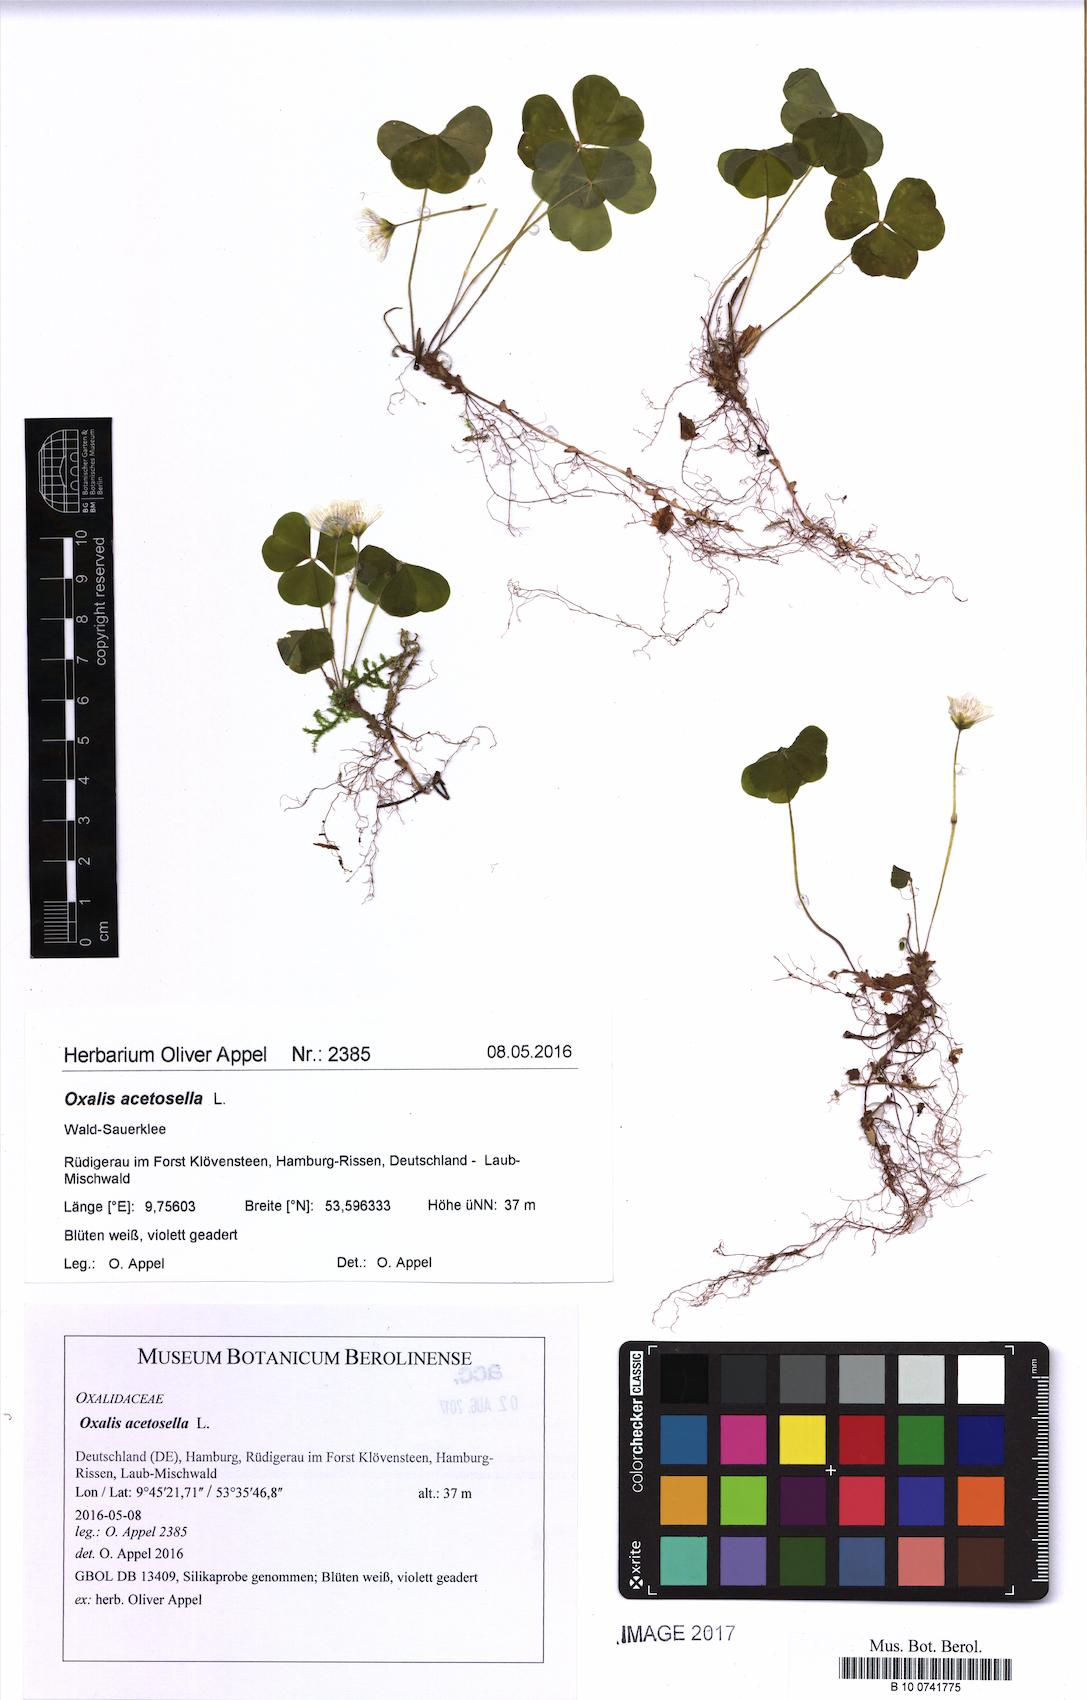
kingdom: Plantae
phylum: Tracheophyta
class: Magnoliopsida
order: Oxalidales
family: Oxalidaceae
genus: Oxalis
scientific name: Oxalis acetosella
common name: Wood-sorrel
